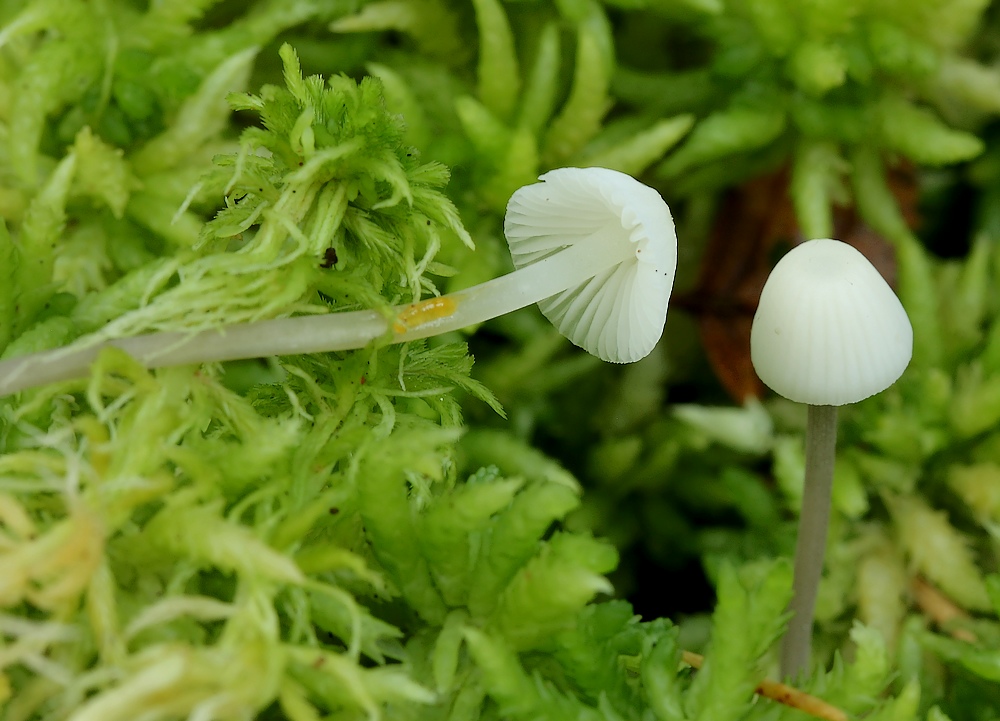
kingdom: Fungi
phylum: Basidiomycota
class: Agaricomycetes
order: Agaricales
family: Mycenaceae
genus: Mycena
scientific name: Mycena galopus
